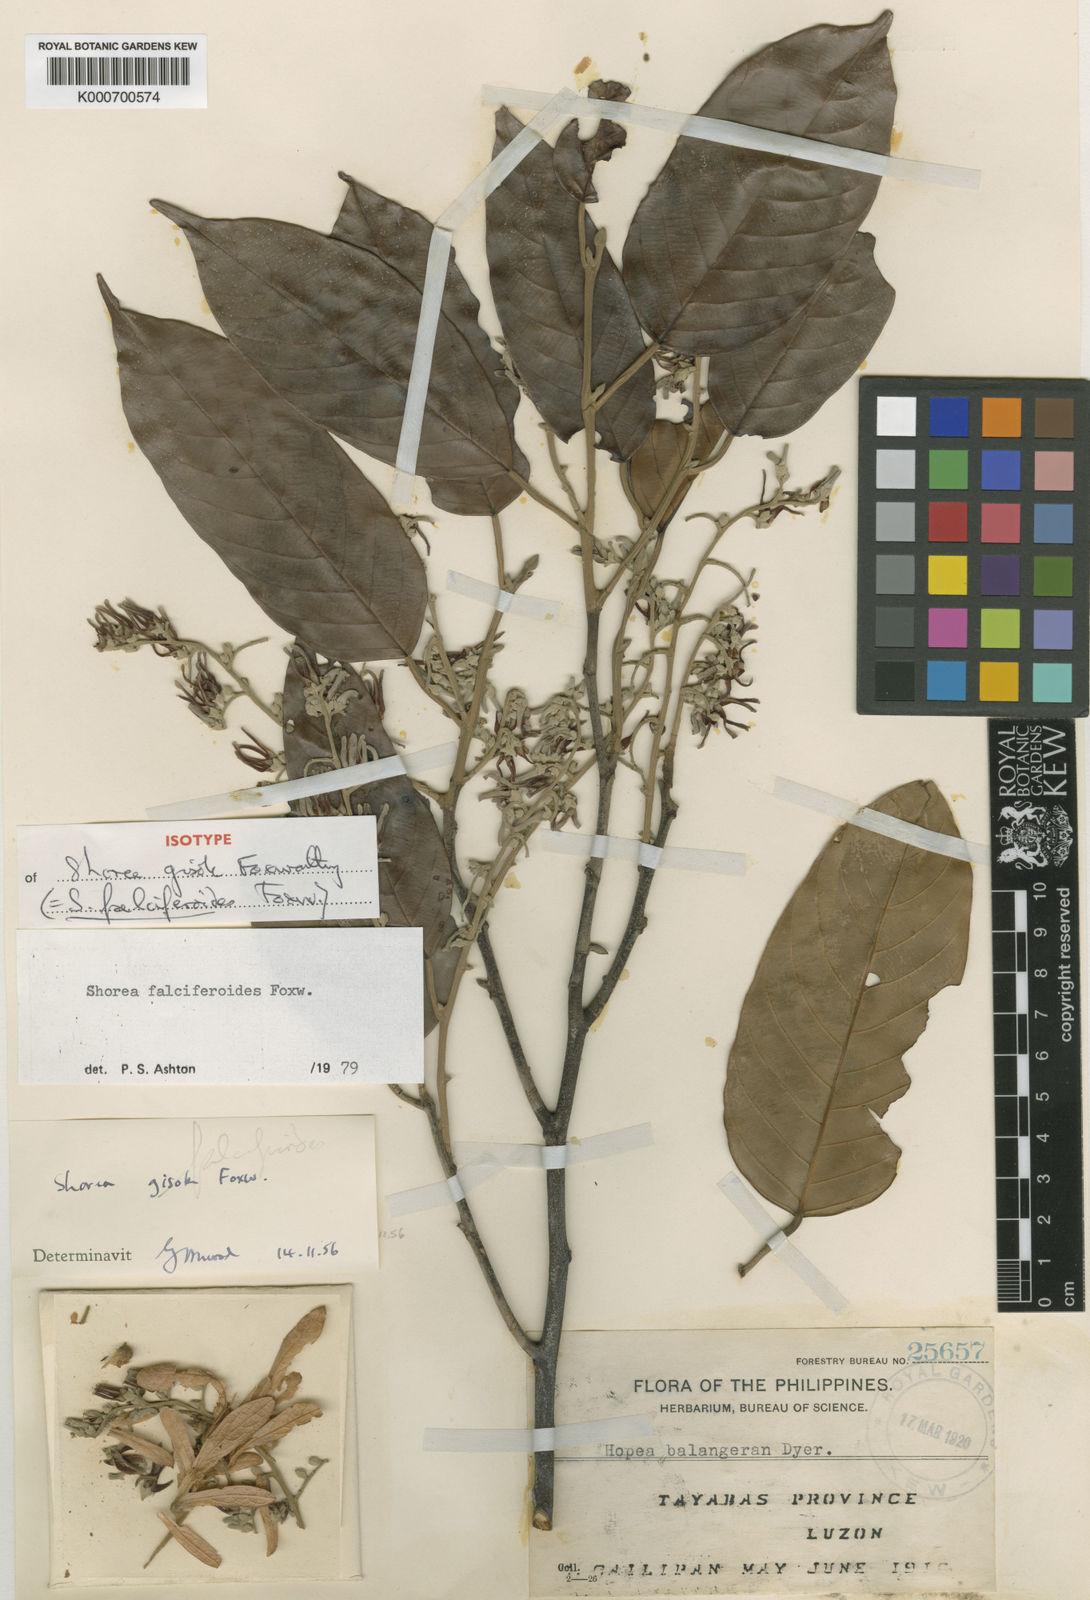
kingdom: Plantae
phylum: Tracheophyta
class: Magnoliopsida
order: Malvales
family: Dipterocarpaceae
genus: Shorea
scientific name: Shorea falciferoides
